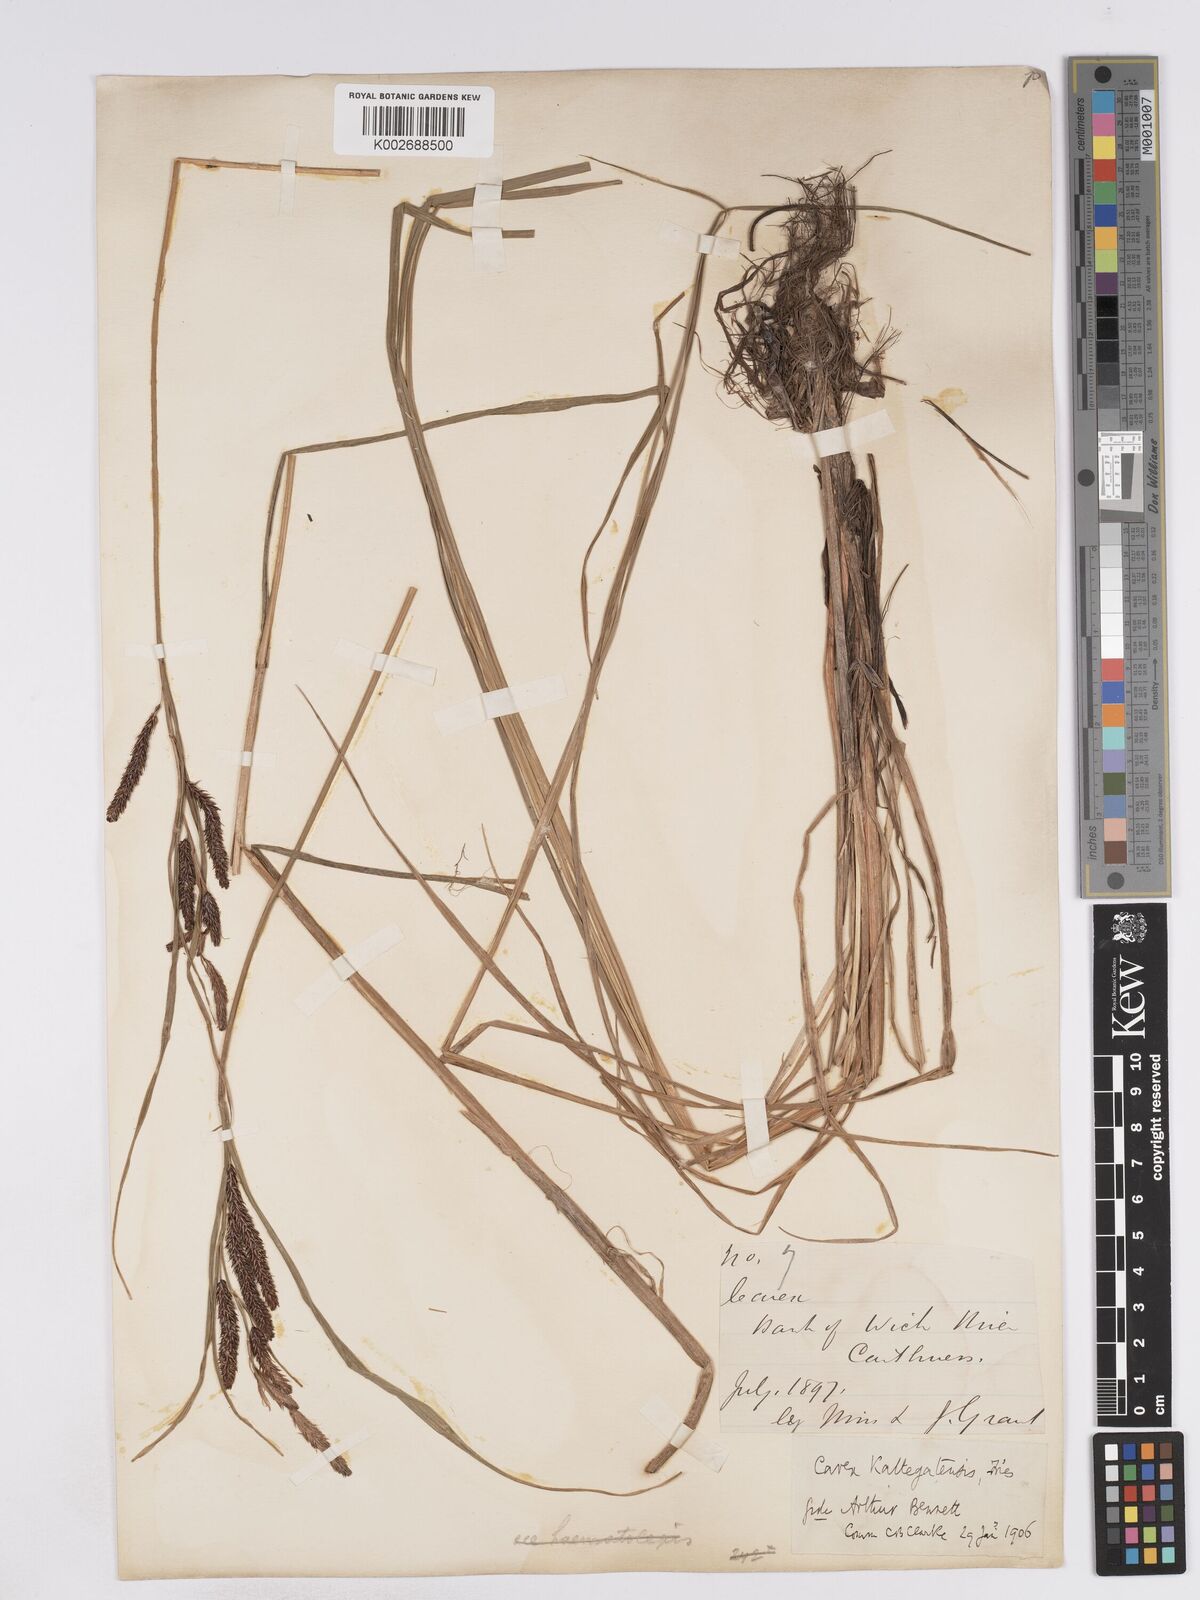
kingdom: Plantae
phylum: Tracheophyta
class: Liliopsida
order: Poales
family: Cyperaceae
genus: Carex
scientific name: Carex recta
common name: Estuarine sedge
